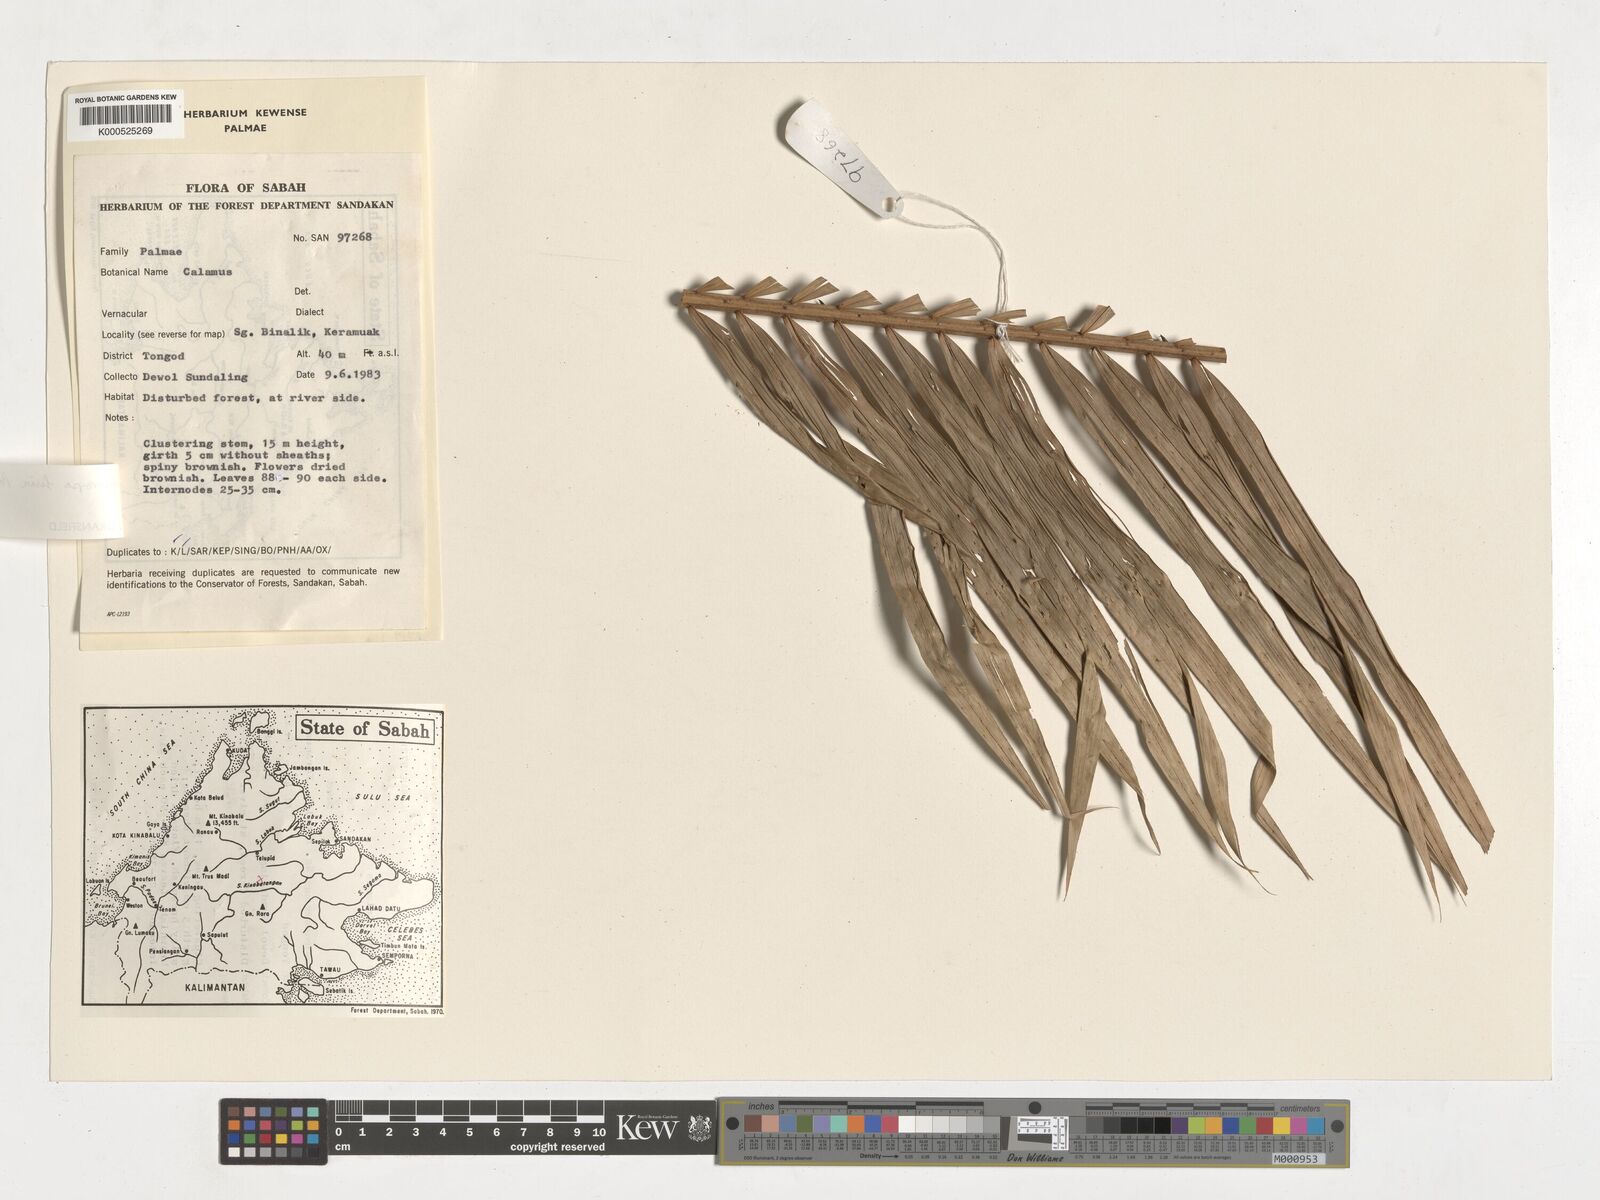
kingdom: Plantae
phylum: Tracheophyta
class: Liliopsida
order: Arecales
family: Arecaceae
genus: Calamus
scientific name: Calamus melanochaetes
